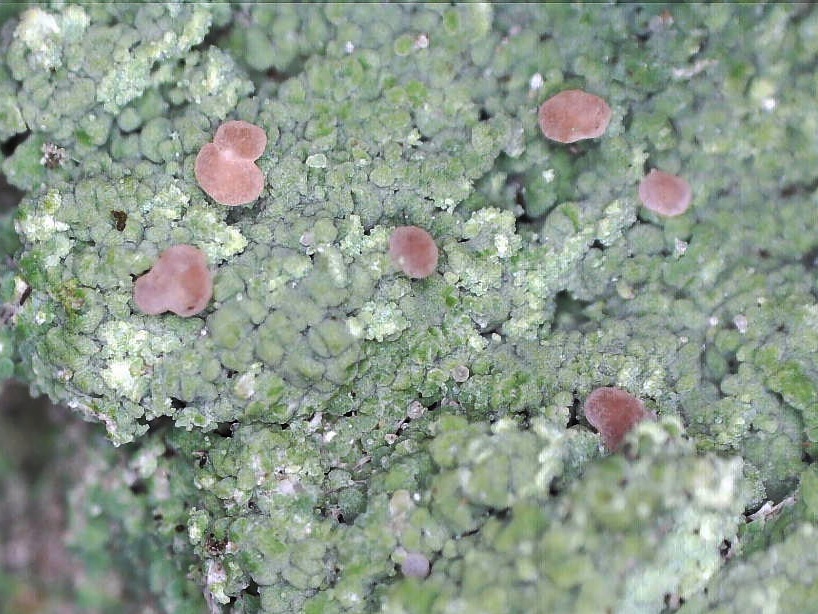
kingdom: Fungi
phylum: Ascomycota
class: Lecanoromycetes
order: Baeomycetales
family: Baeomycetaceae
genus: Baeomyces
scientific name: Baeomyces rufus
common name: rødbrun svampelav
